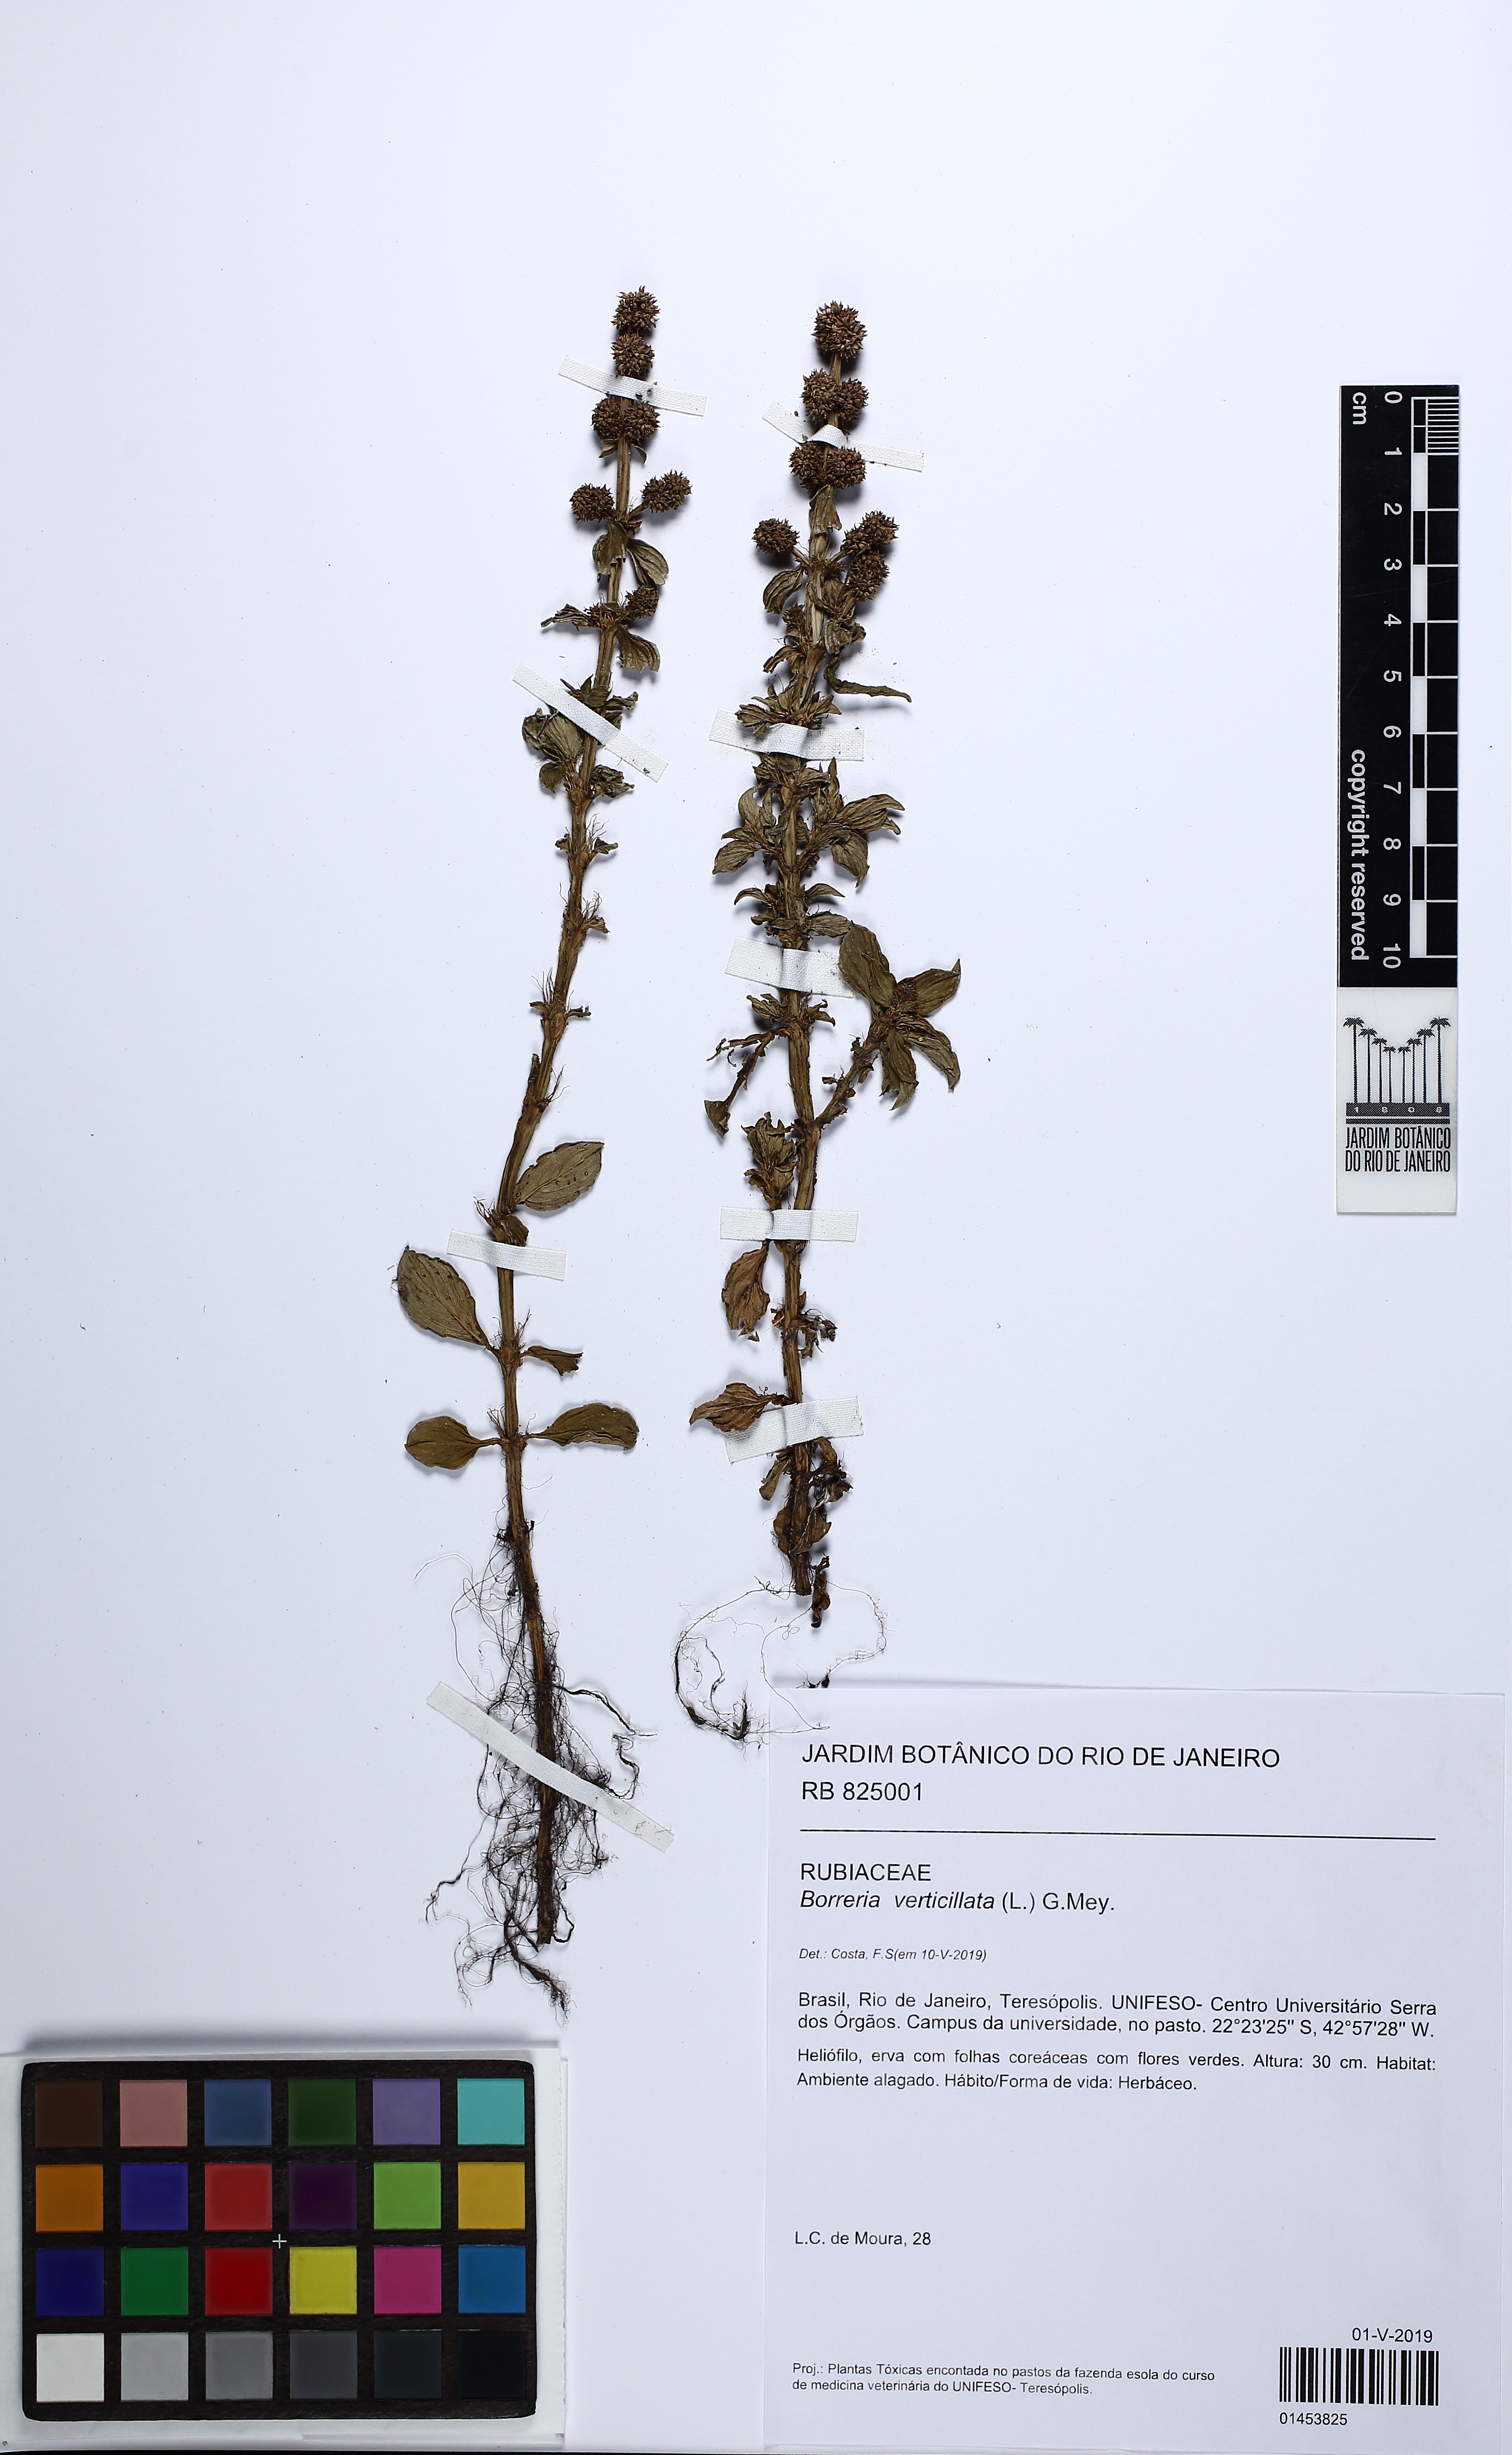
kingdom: Plantae
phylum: Tracheophyta
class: Magnoliopsida
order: Gentianales
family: Rubiaceae
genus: Spermacoce
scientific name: Spermacoce verticillata
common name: Shrubby false buttonweed
